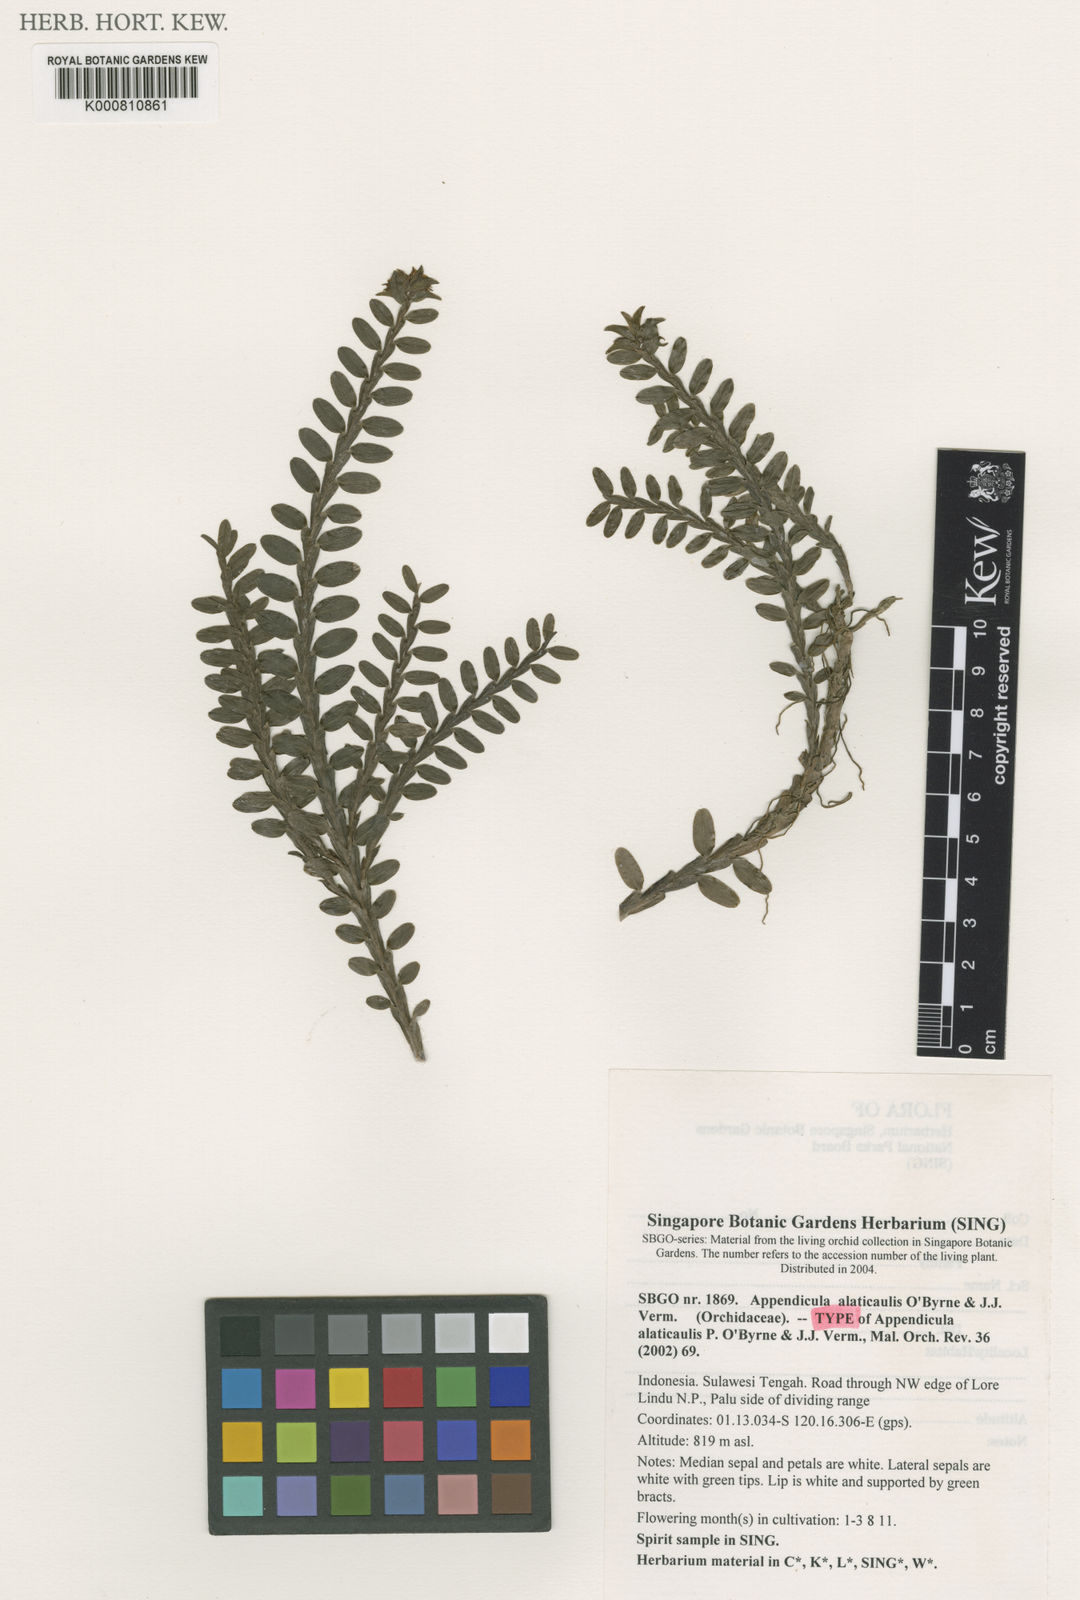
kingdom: Plantae
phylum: Tracheophyta
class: Liliopsida
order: Asparagales
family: Orchidaceae
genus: Appendicula
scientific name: Appendicula alatocaulis
